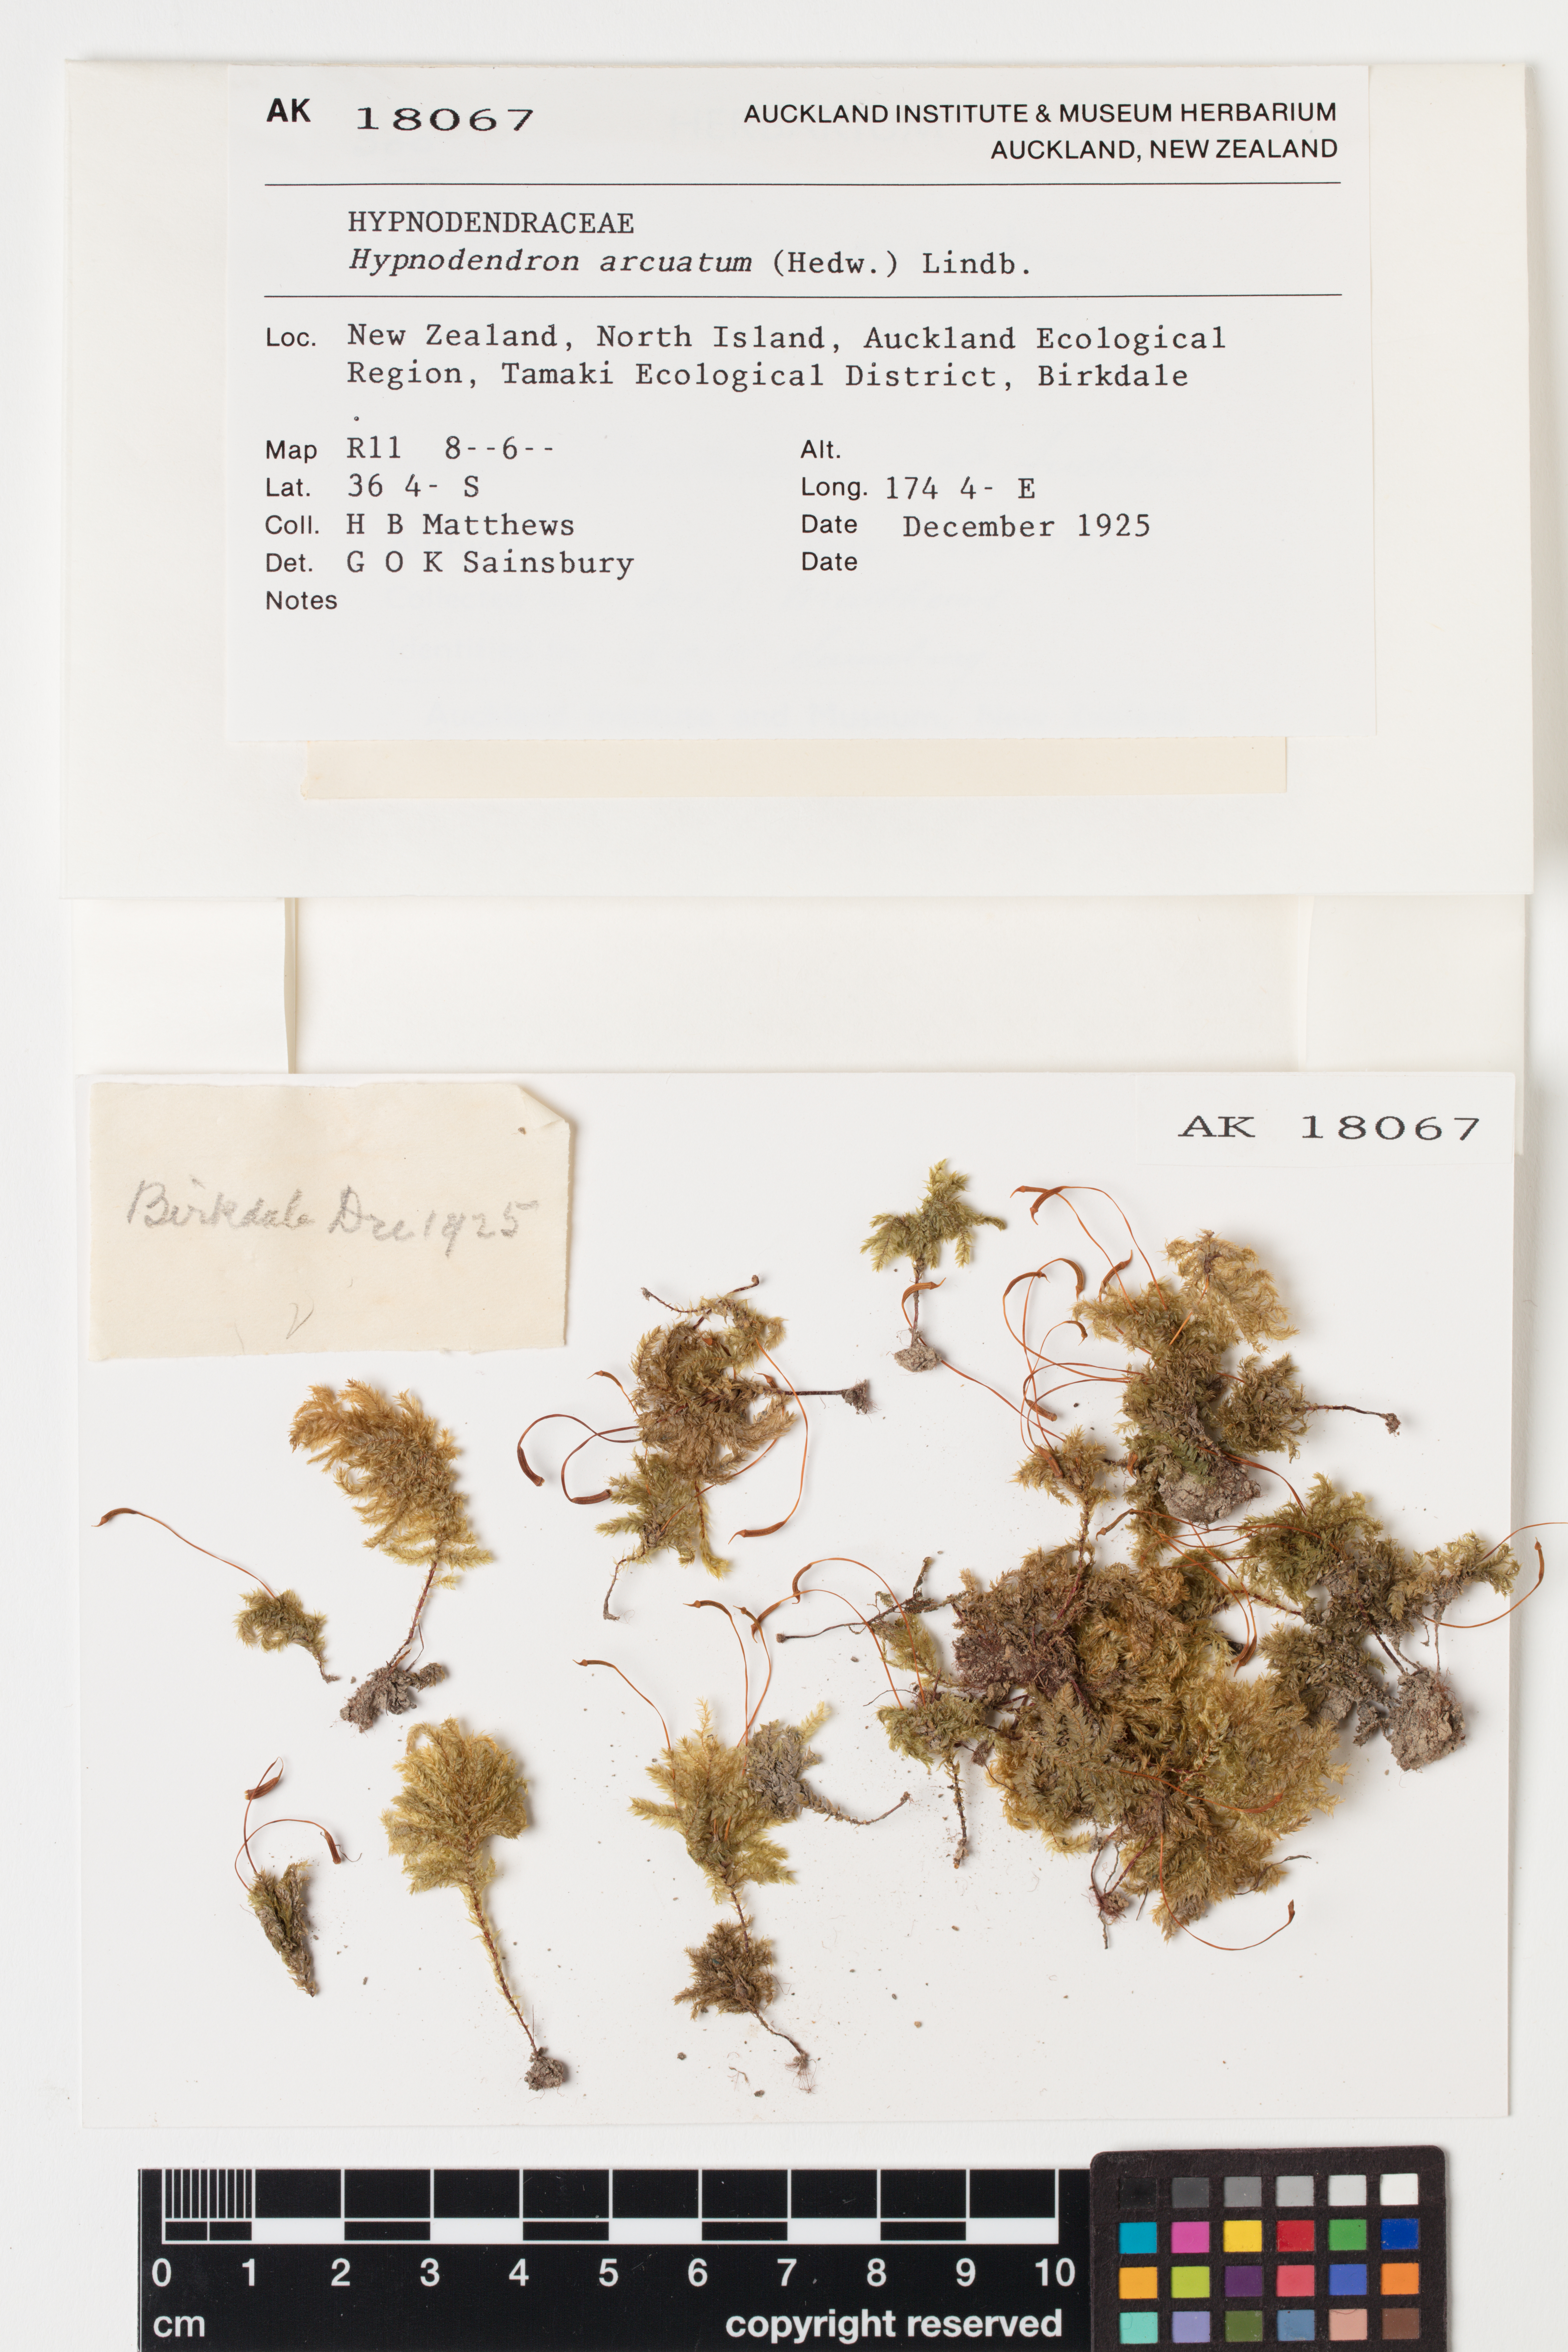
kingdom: Plantae
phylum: Bryophyta
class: Bryopsida
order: Hypnodendrales
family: Spiridentaceae
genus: Hypnodendron
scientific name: Hypnodendron arcuatum
